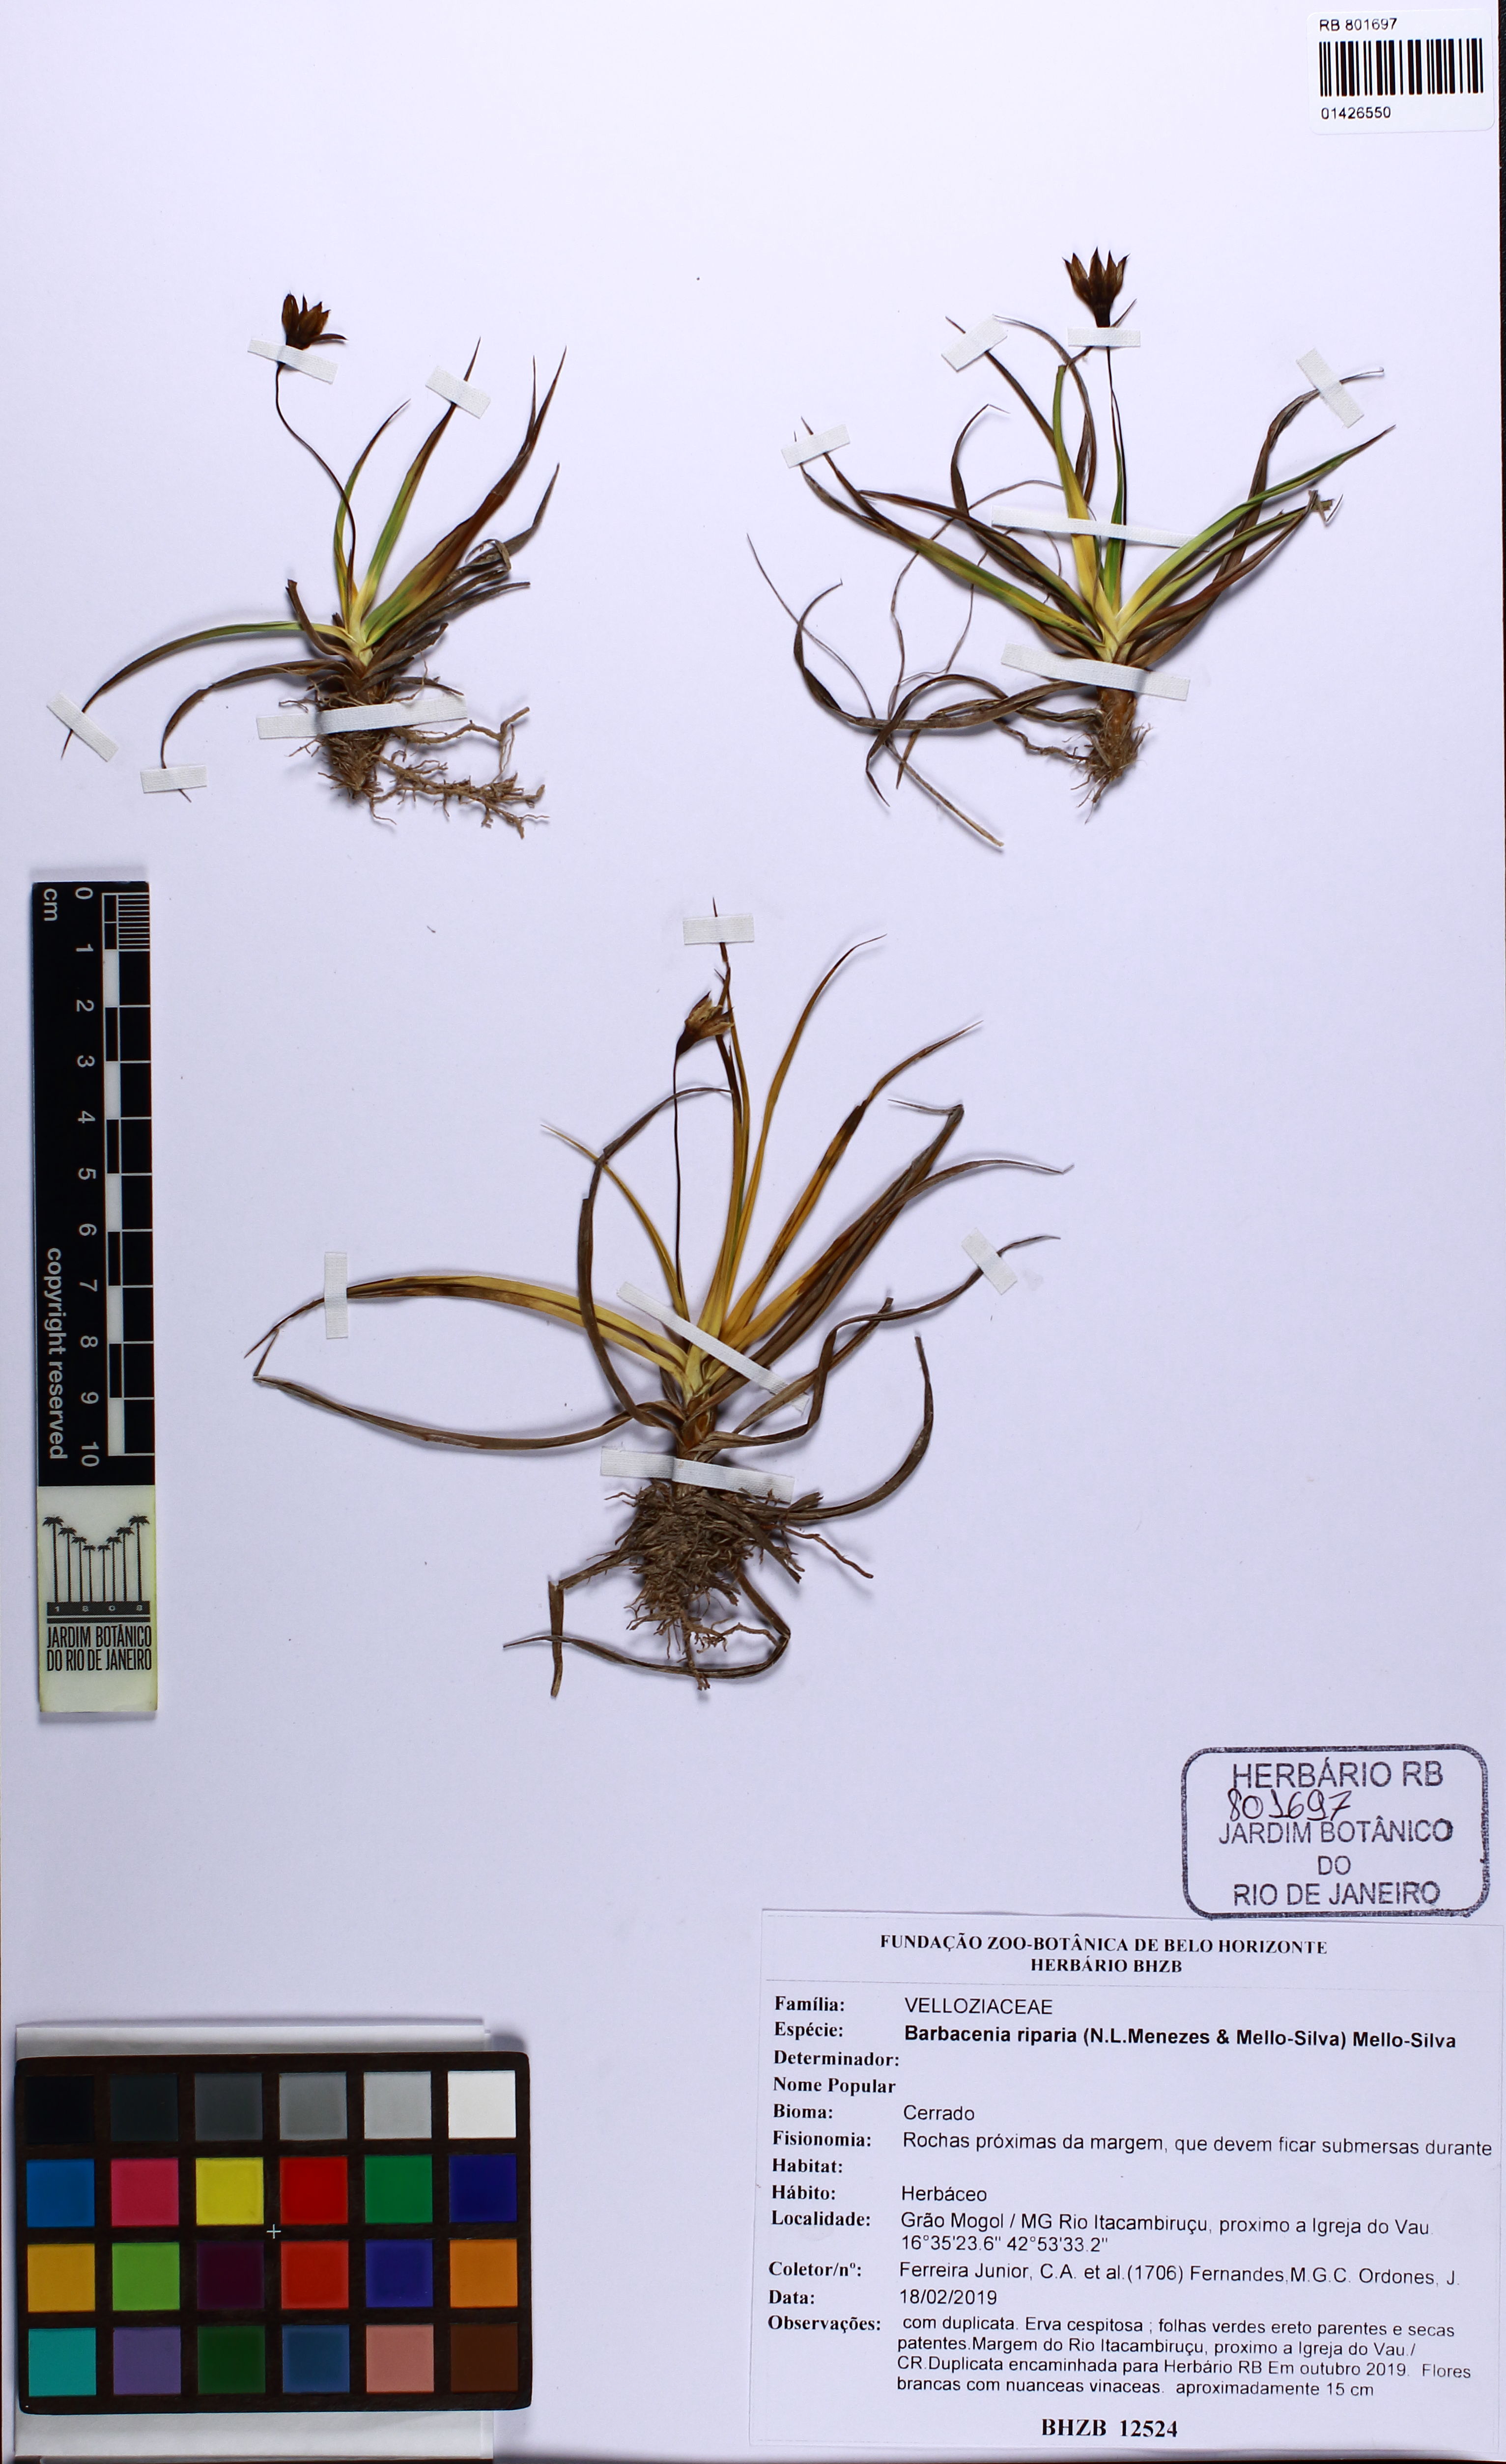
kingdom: Plantae
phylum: Tracheophyta
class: Liliopsida
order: Pandanales
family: Velloziaceae
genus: Barbacenia
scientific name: Barbacenia riparia
